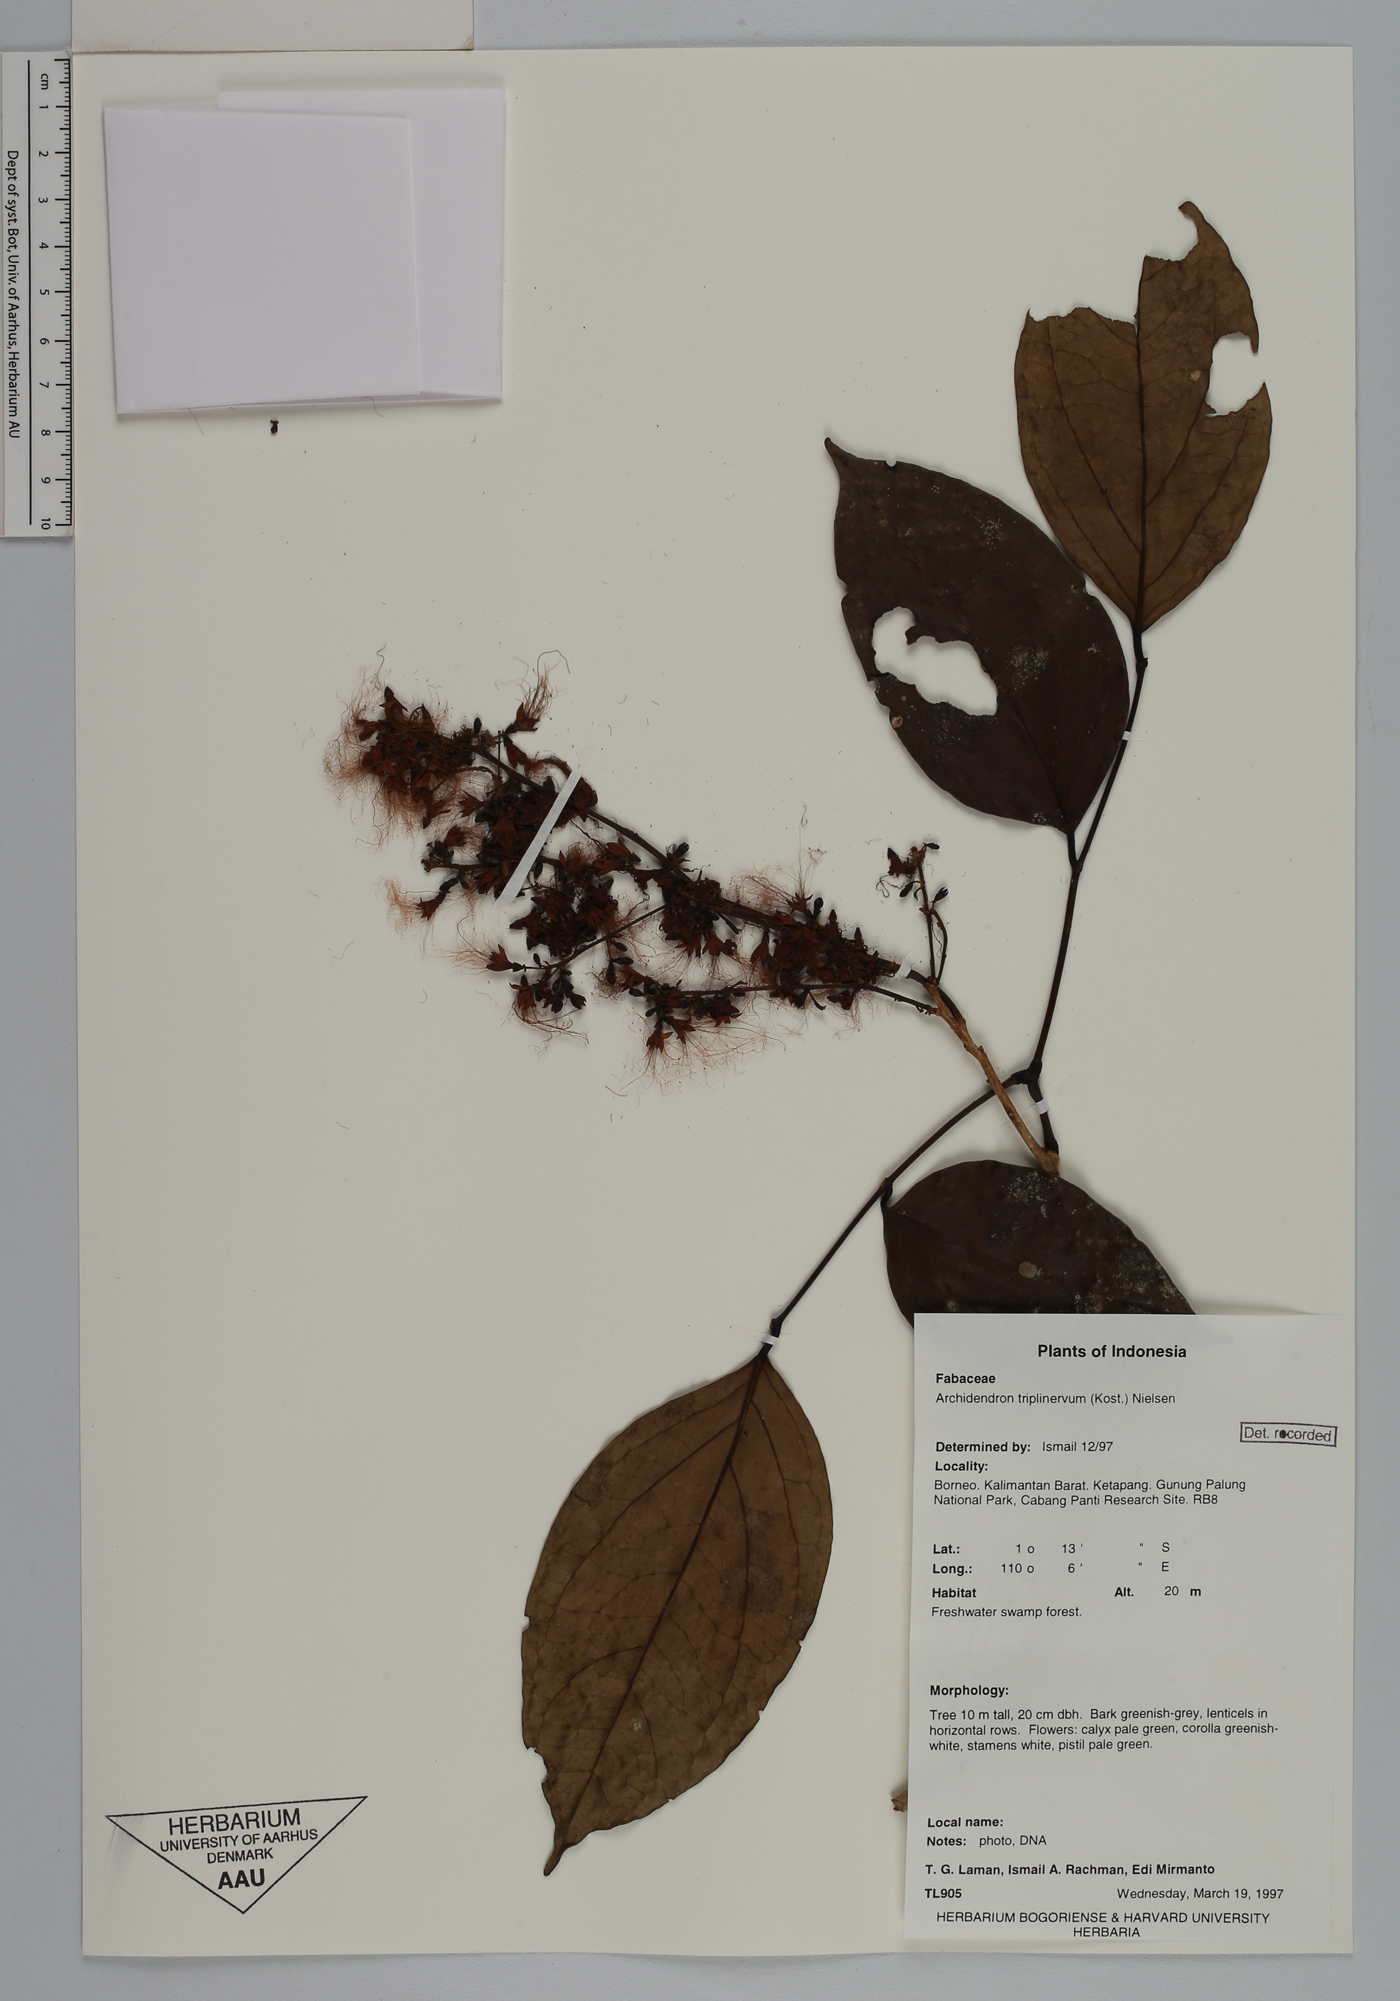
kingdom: Plantae
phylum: Tracheophyta
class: Magnoliopsida
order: Fabales
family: Fabaceae
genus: Archidendron
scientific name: Archidendron triplinervium
